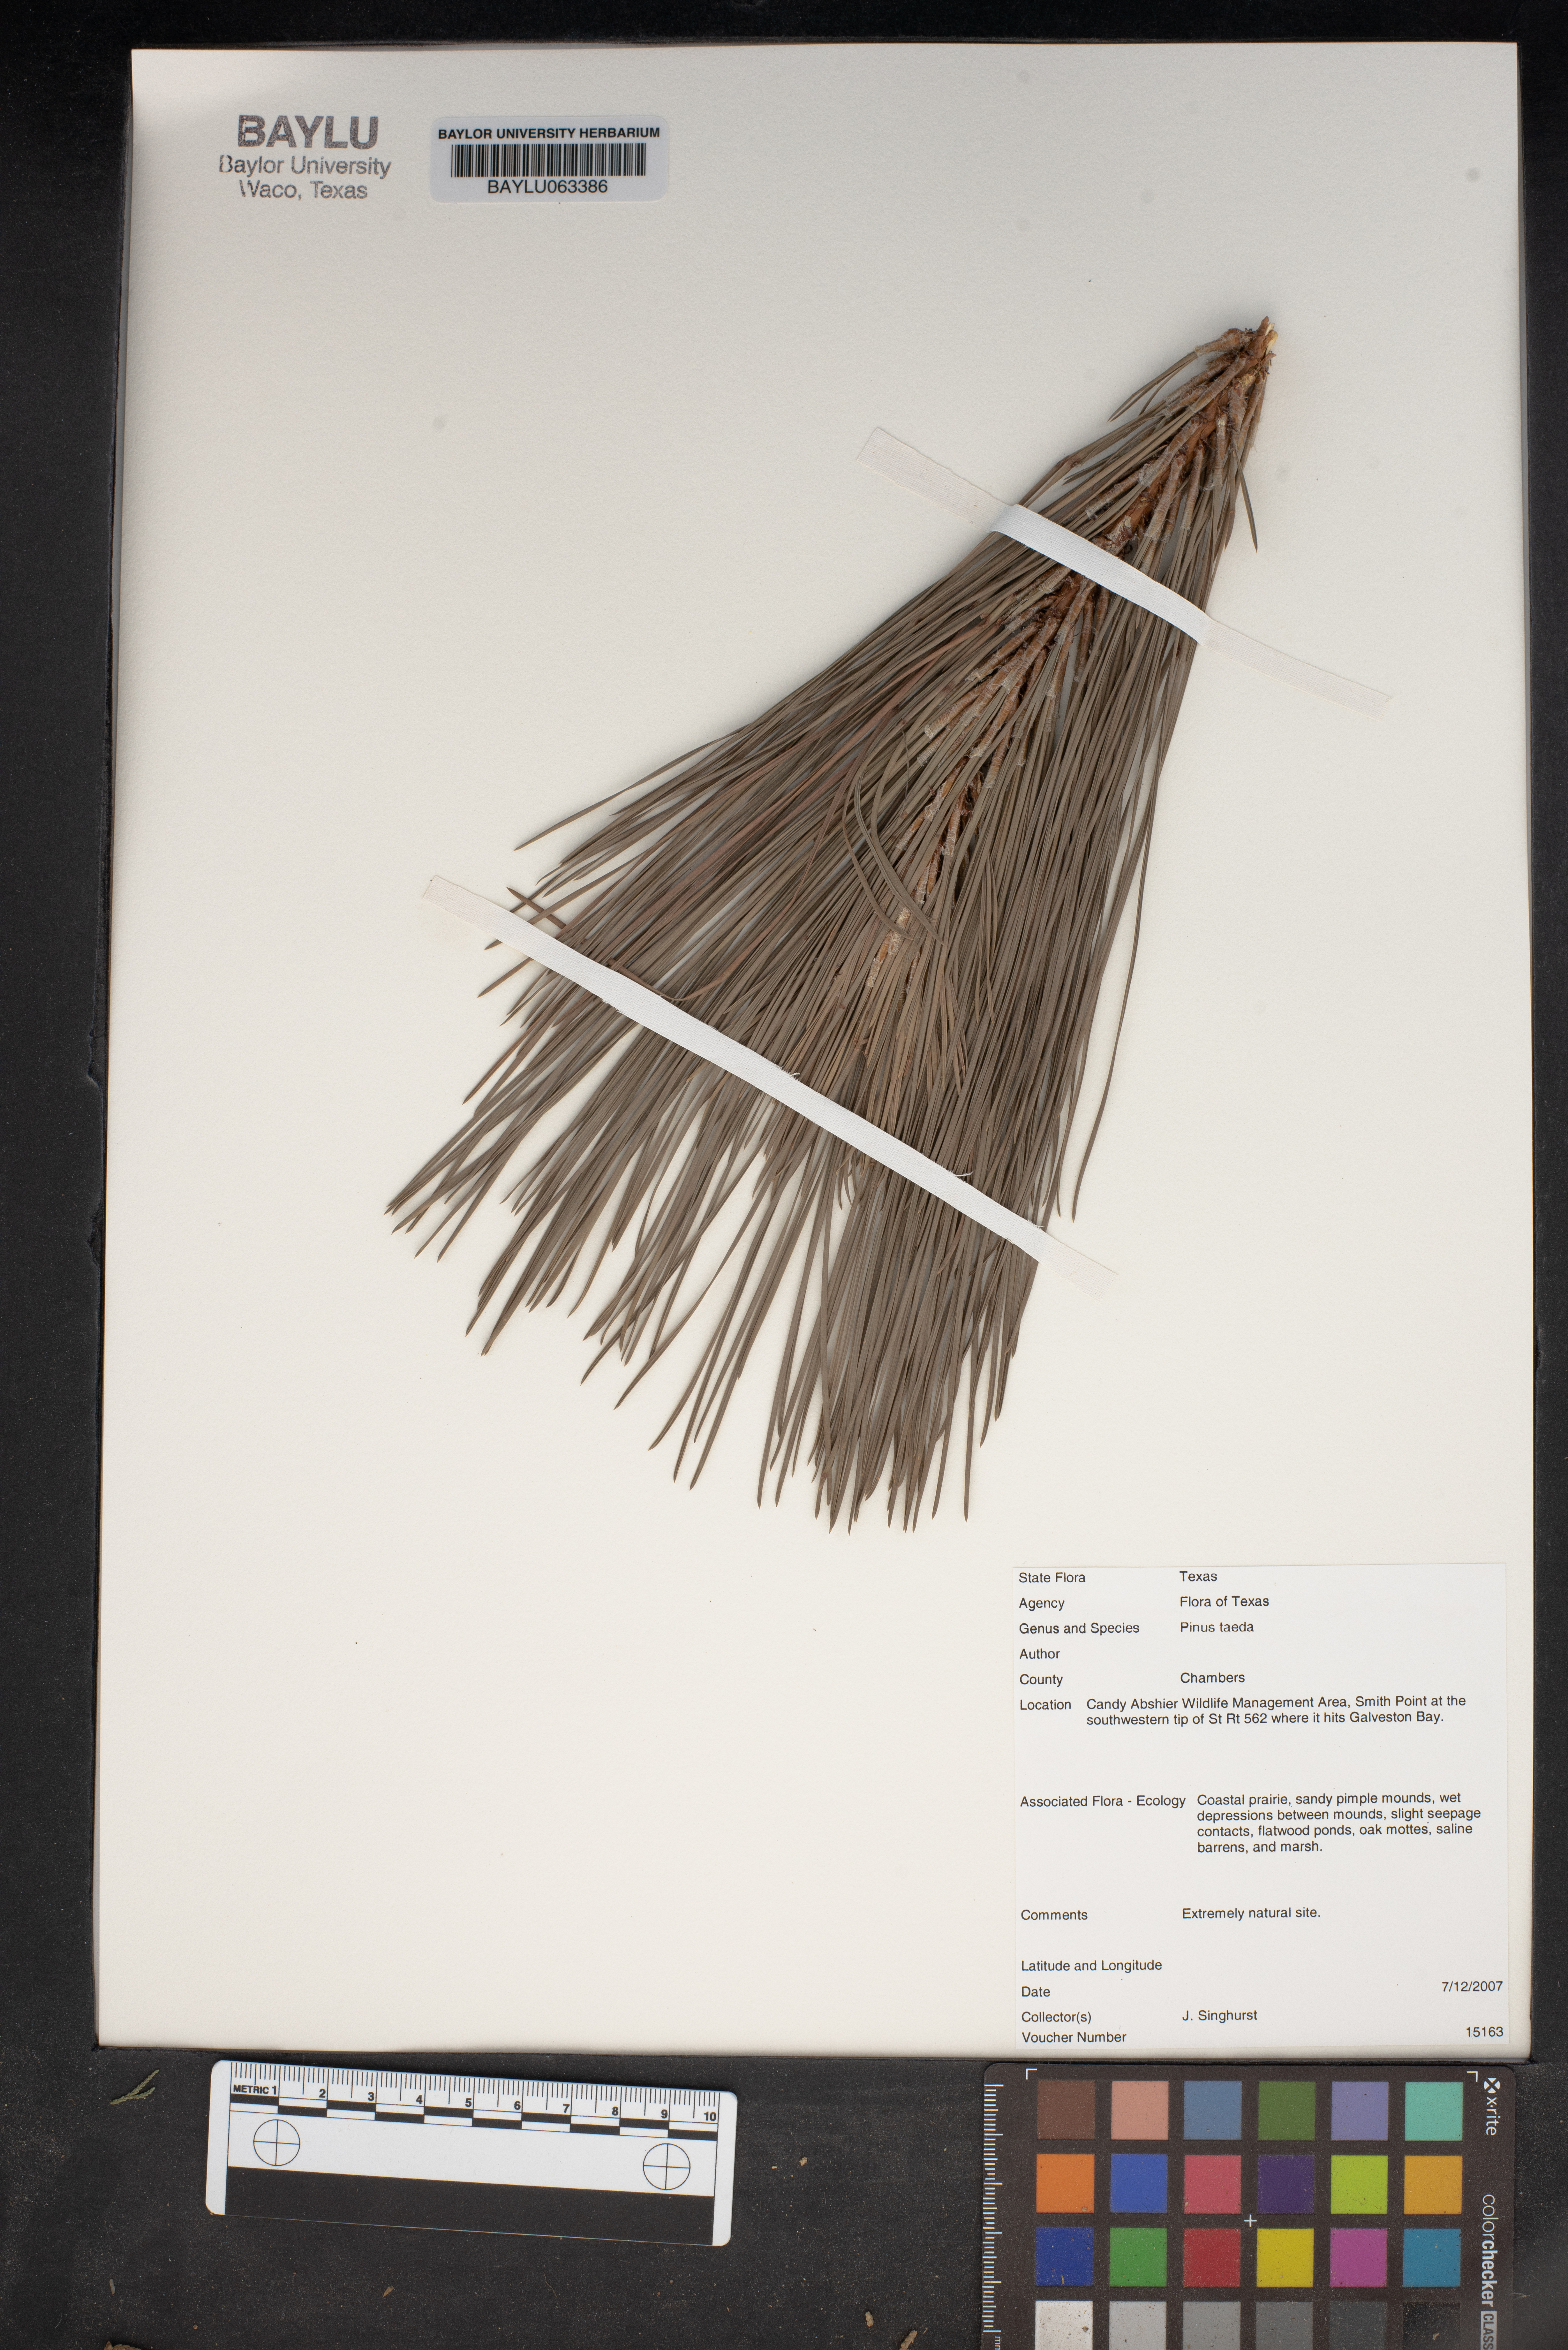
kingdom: Plantae
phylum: Tracheophyta
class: Pinopsida
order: Pinales
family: Pinaceae
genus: Pinus
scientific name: Pinus taeda
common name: Loblolly pine
